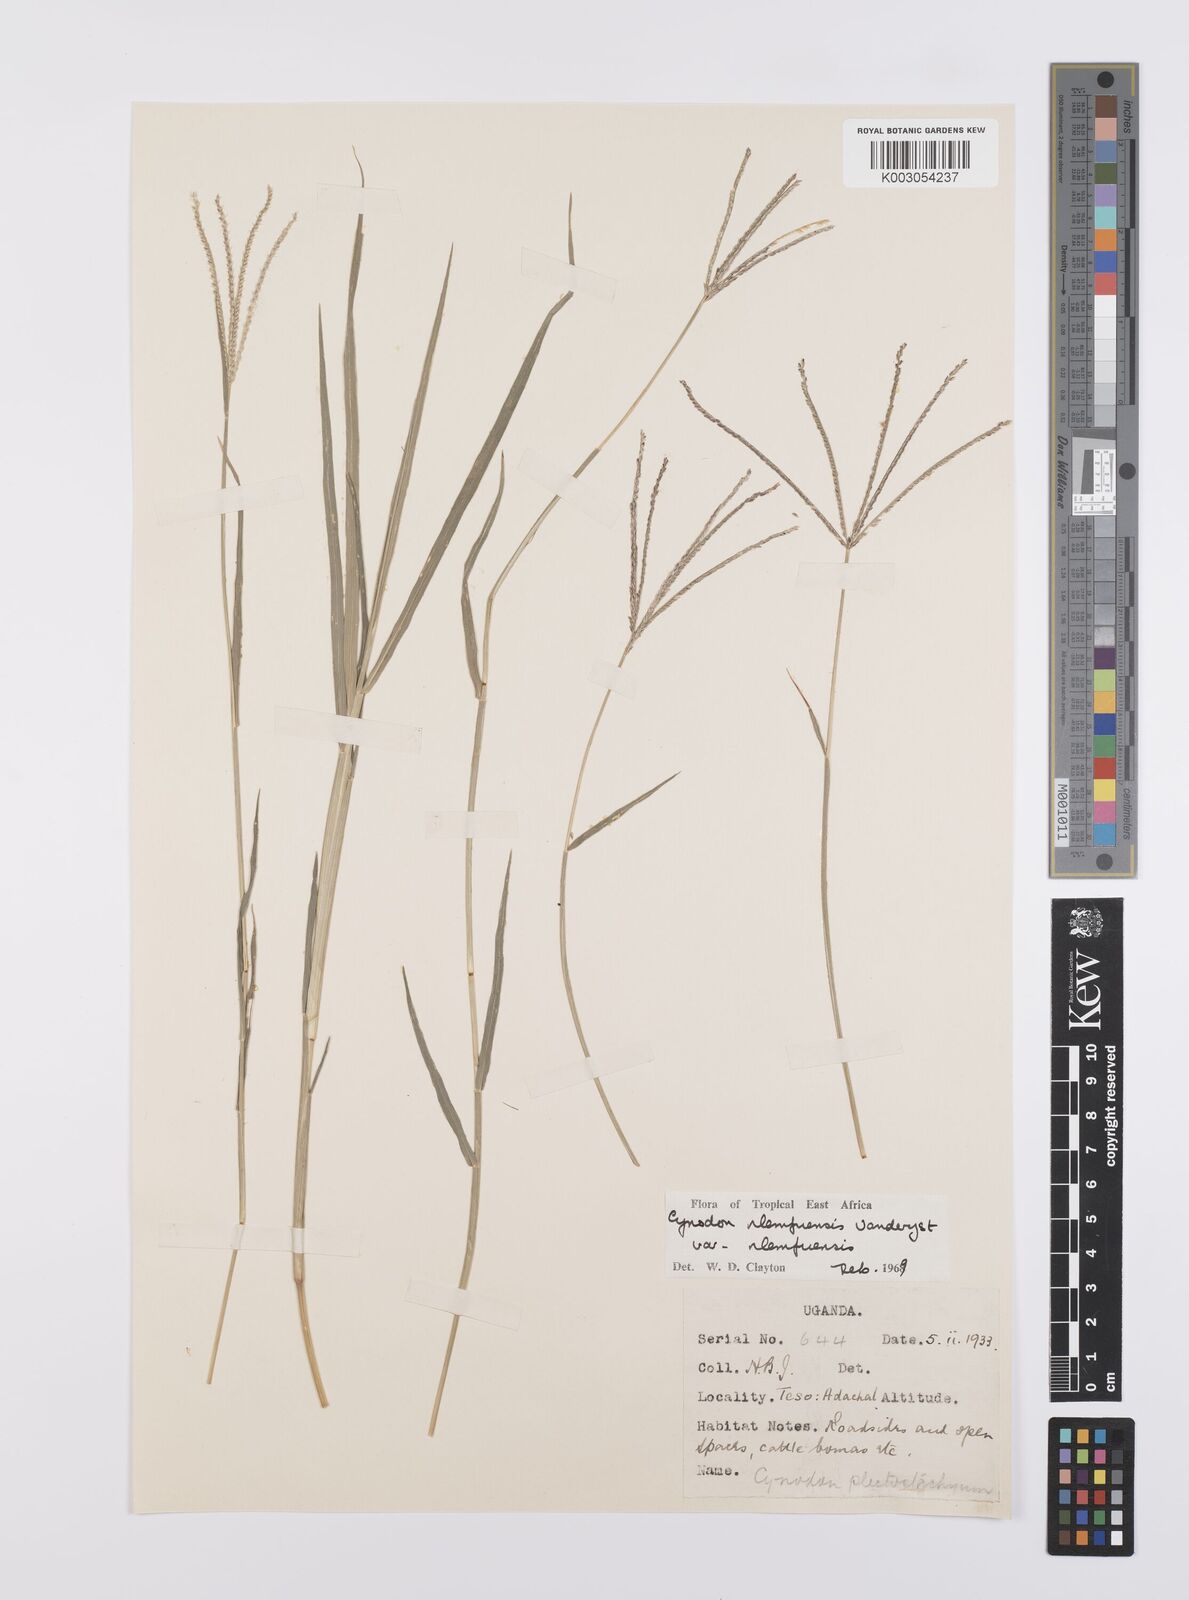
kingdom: Plantae
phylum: Tracheophyta
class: Liliopsida
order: Poales
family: Poaceae
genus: Cynodon
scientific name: Cynodon nlemfuensis
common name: African bermudagrass
